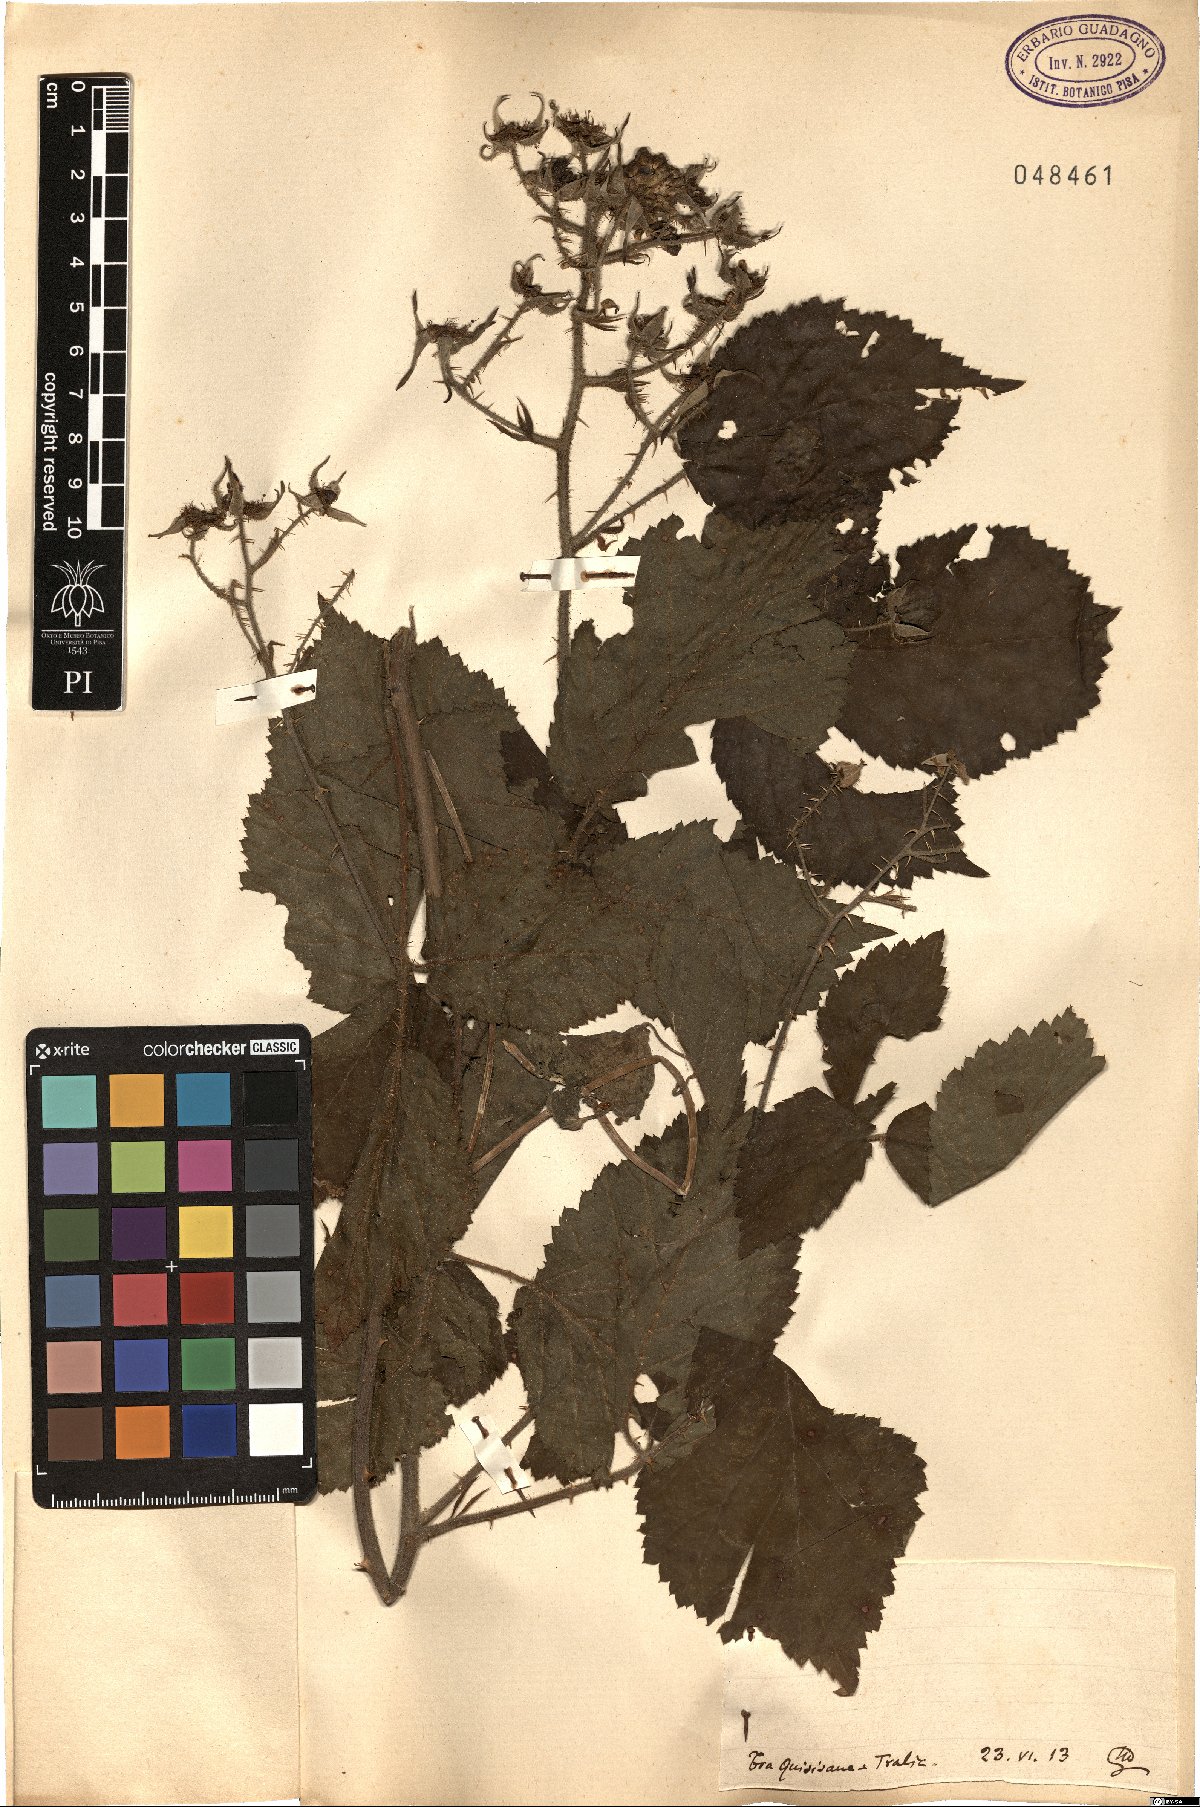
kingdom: Plantae
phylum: Tracheophyta
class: Magnoliopsida
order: Rosales
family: Rosaceae
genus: Rubus
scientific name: Rubus
